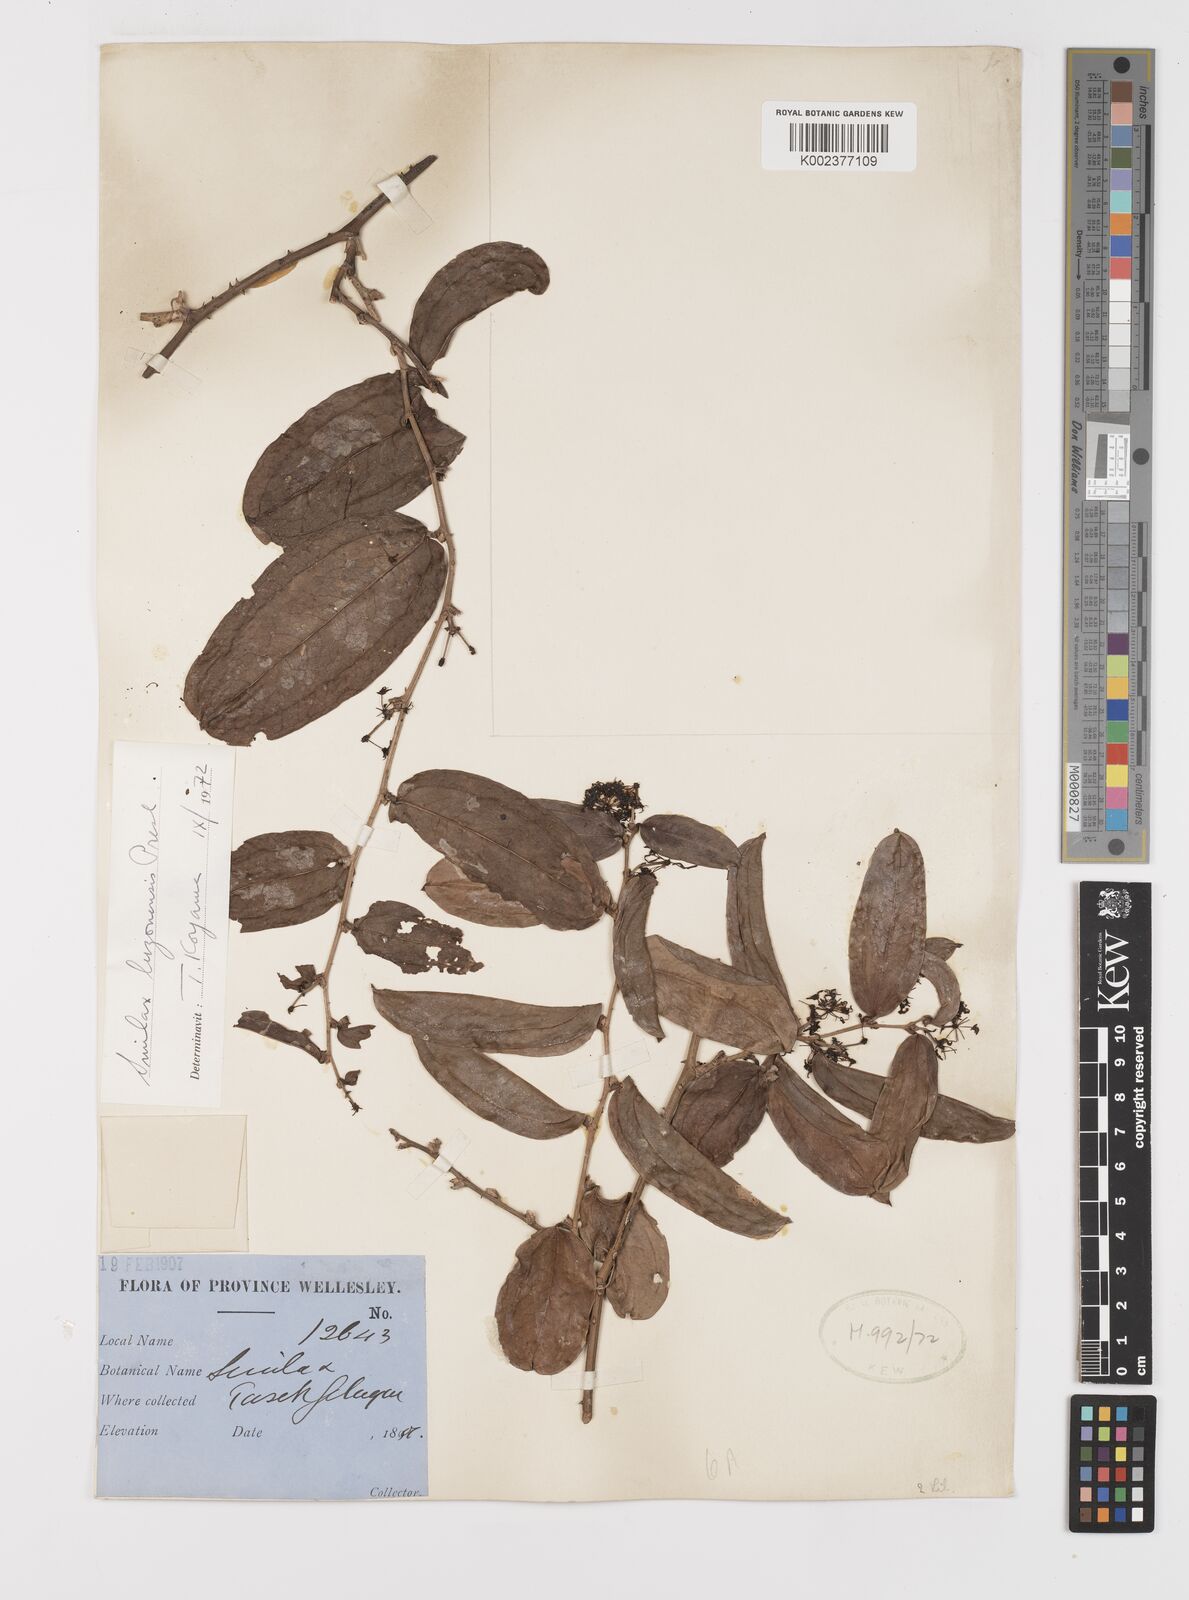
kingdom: Plantae
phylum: Tracheophyta
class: Liliopsida
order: Liliales
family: Smilacaceae
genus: Smilax
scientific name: Smilax luzonensis
